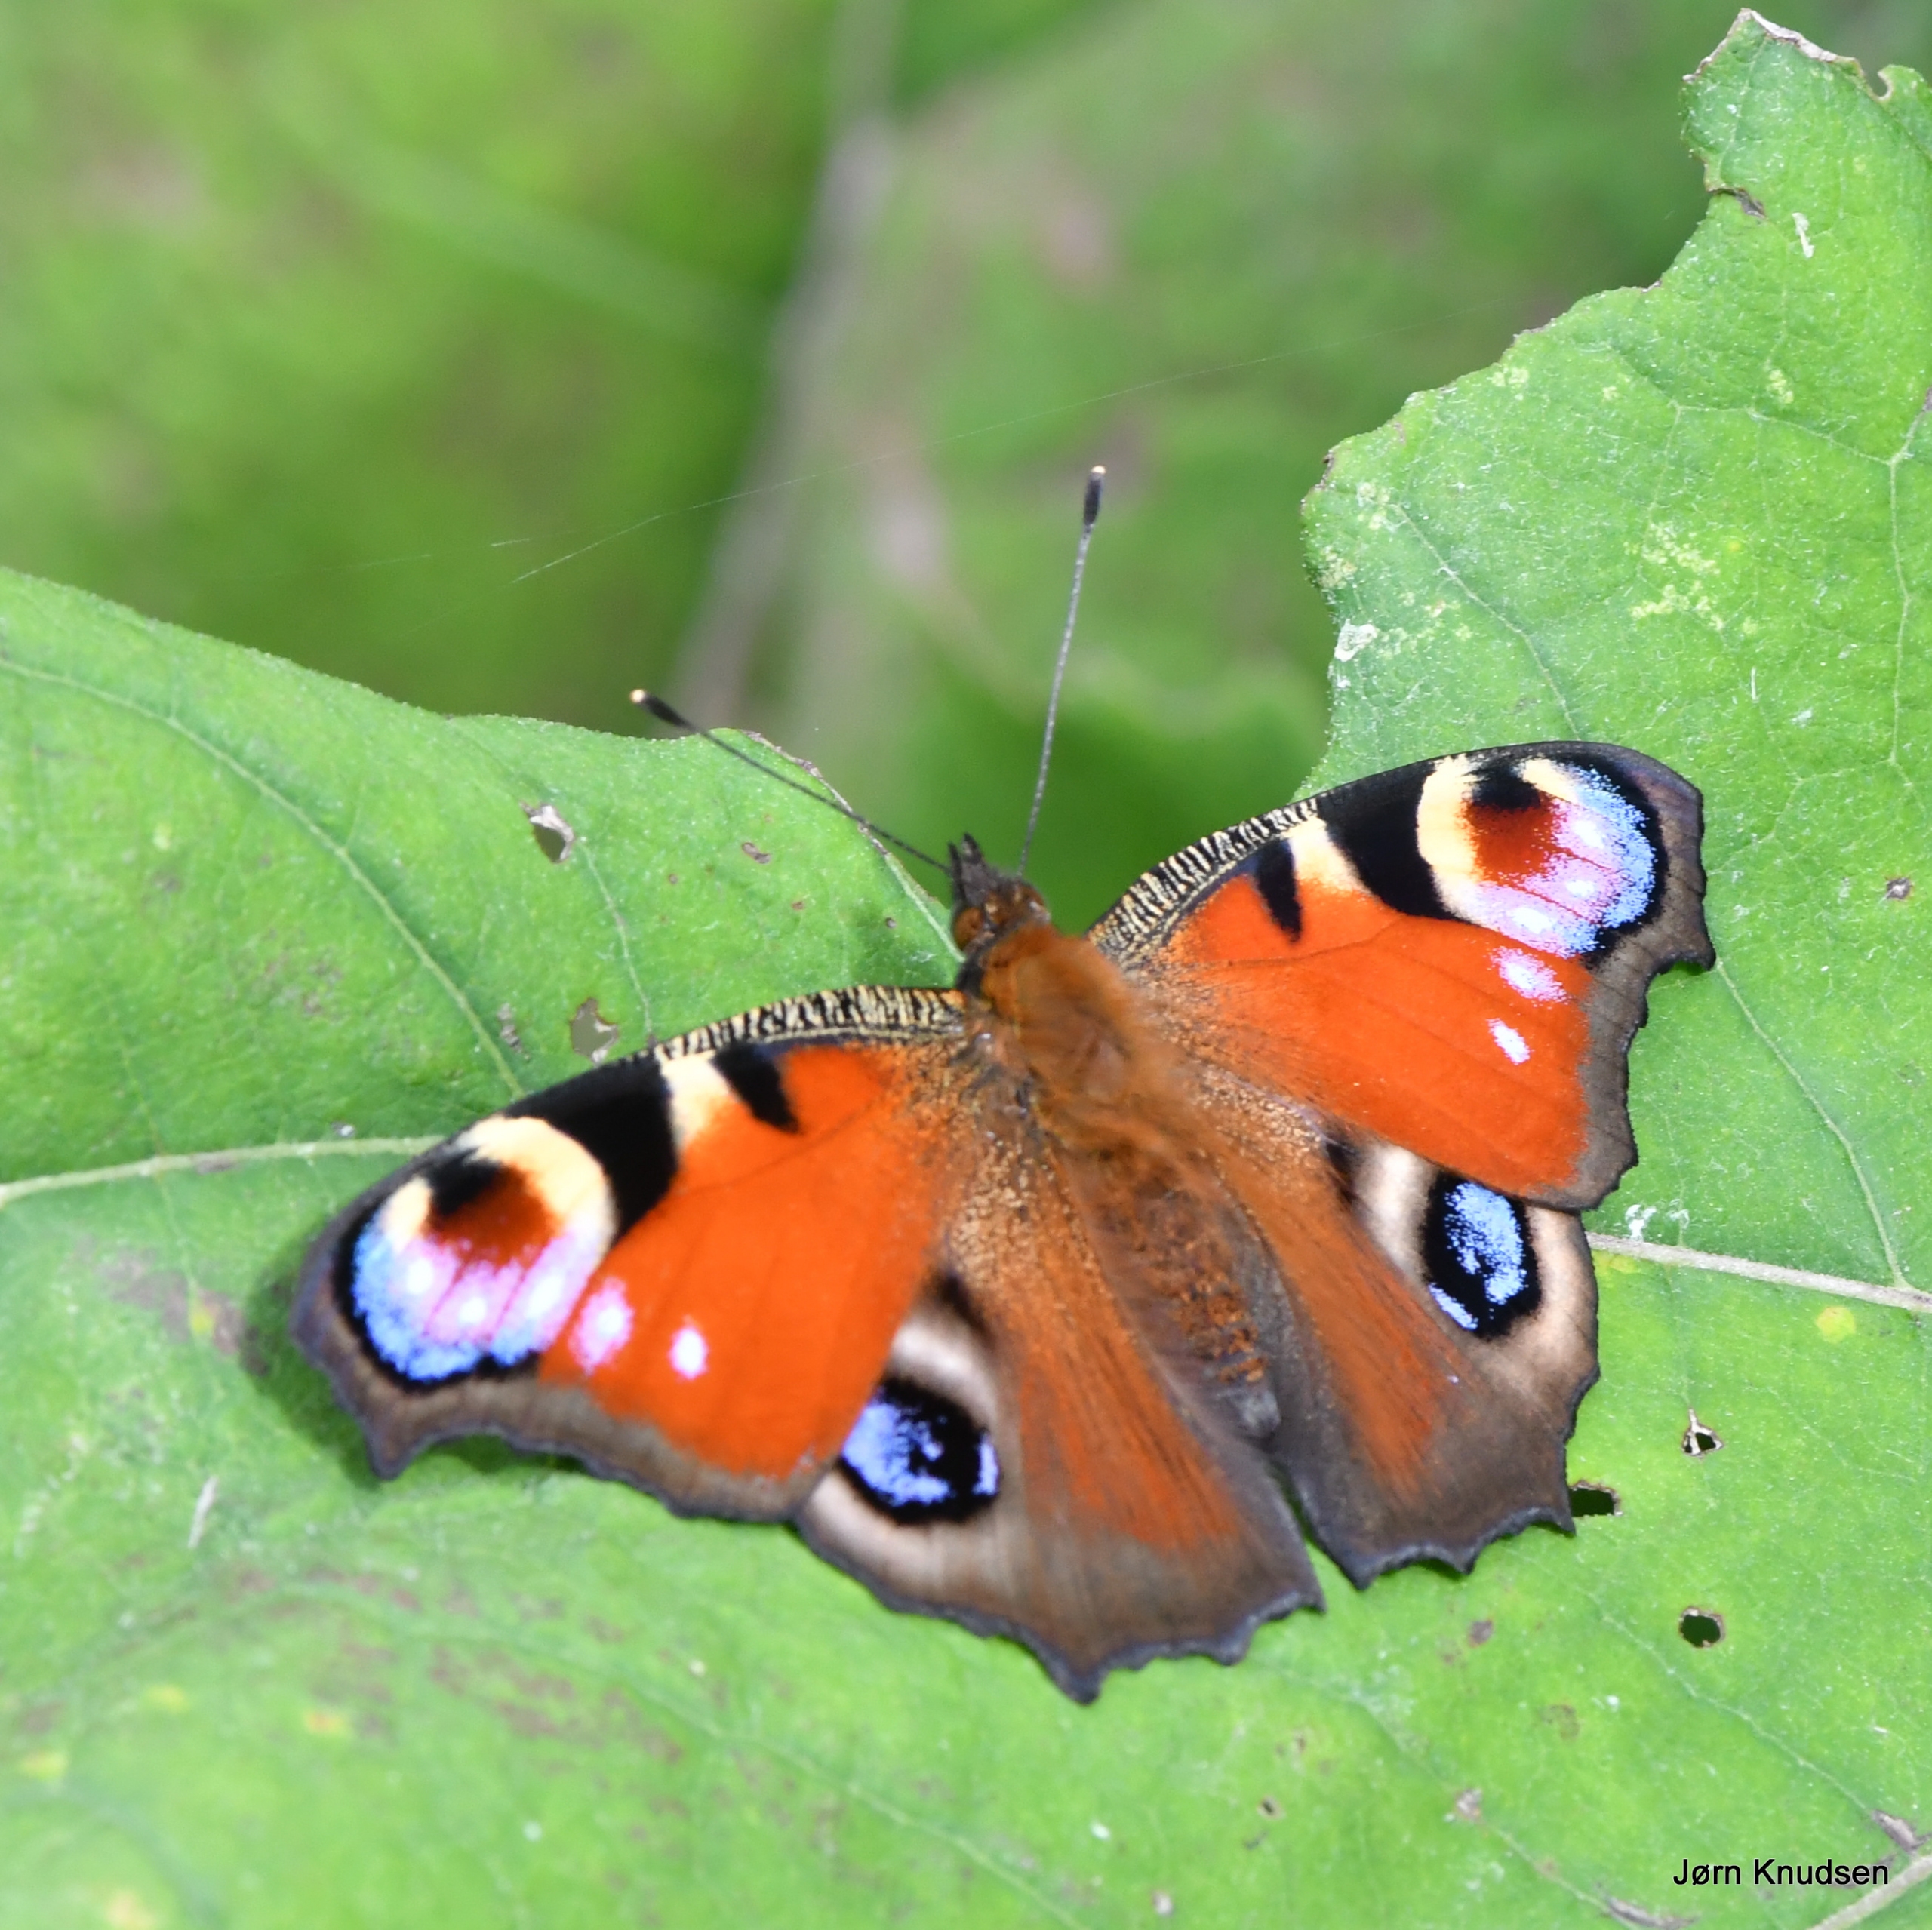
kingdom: Animalia
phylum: Arthropoda
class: Insecta
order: Lepidoptera
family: Nymphalidae
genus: Aglais
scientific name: Aglais io
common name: Dagpåfugleøje
